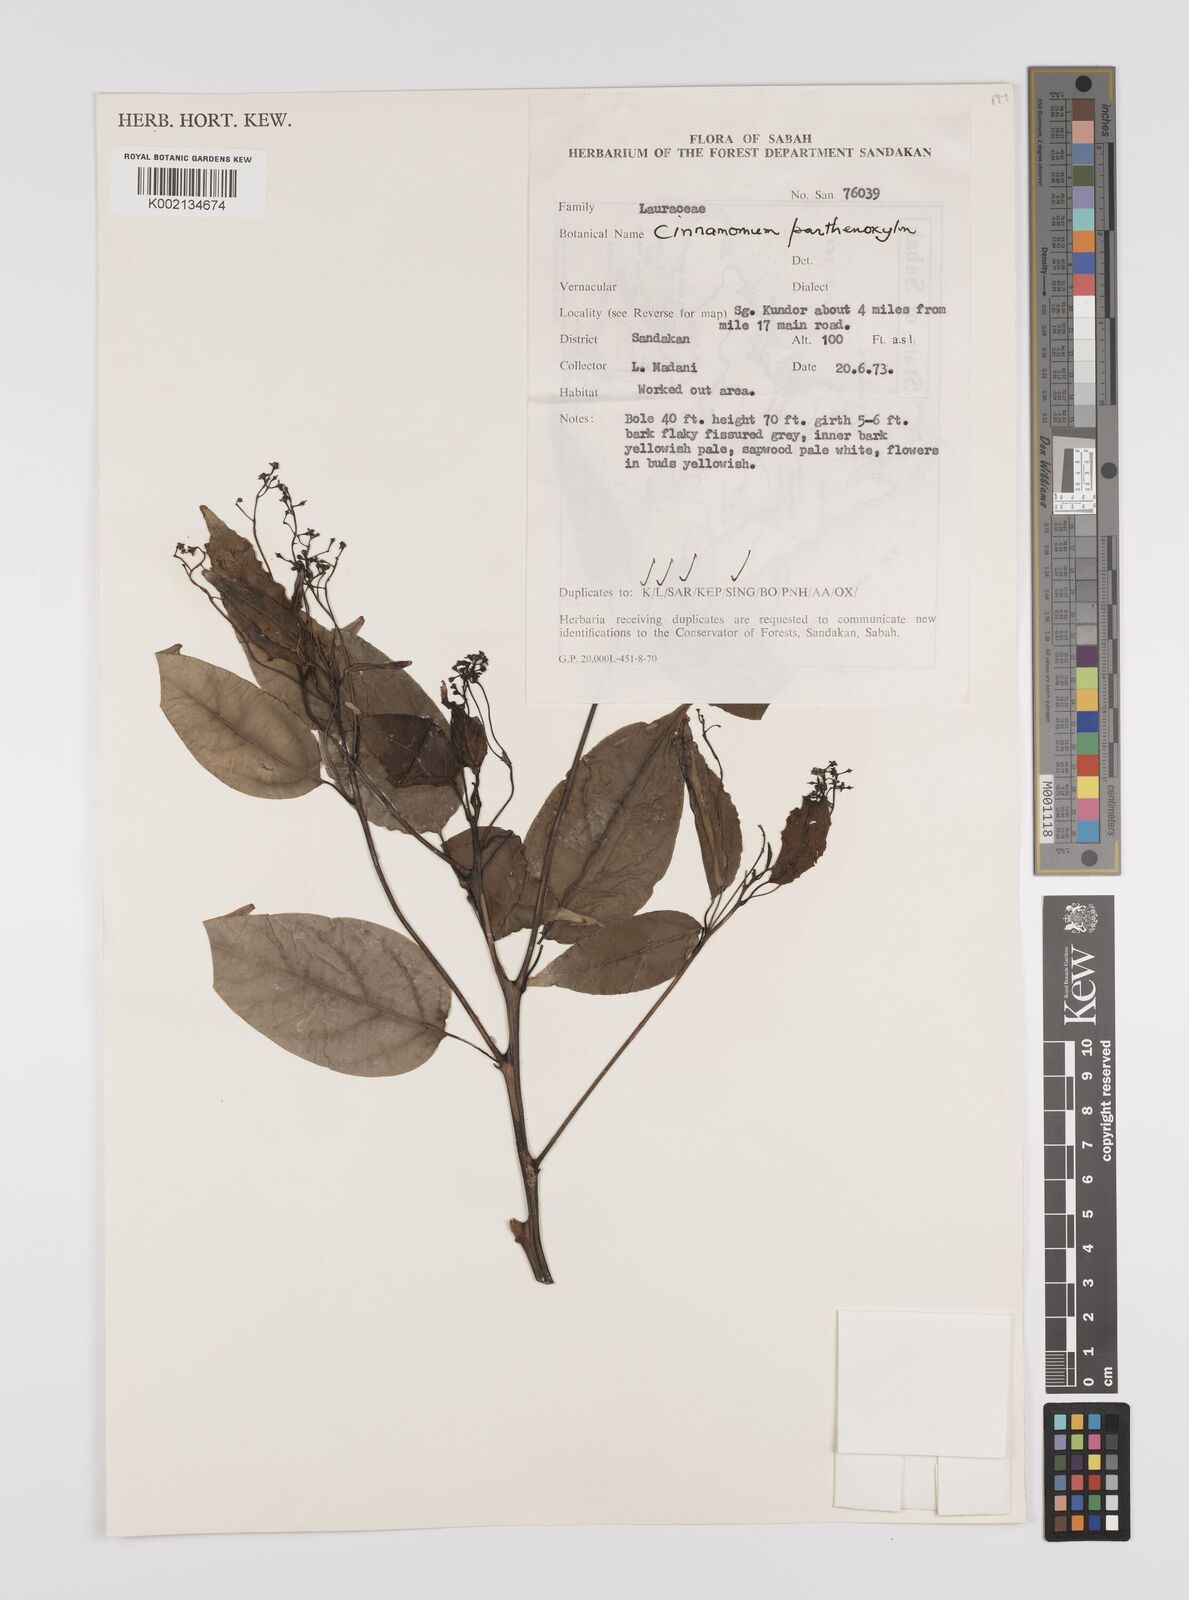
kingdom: Plantae
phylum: Tracheophyta
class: Magnoliopsida
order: Laurales
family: Lauraceae
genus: Cinnamomum
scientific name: Cinnamomum parthenoxylon
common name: Martaban camphor wood
